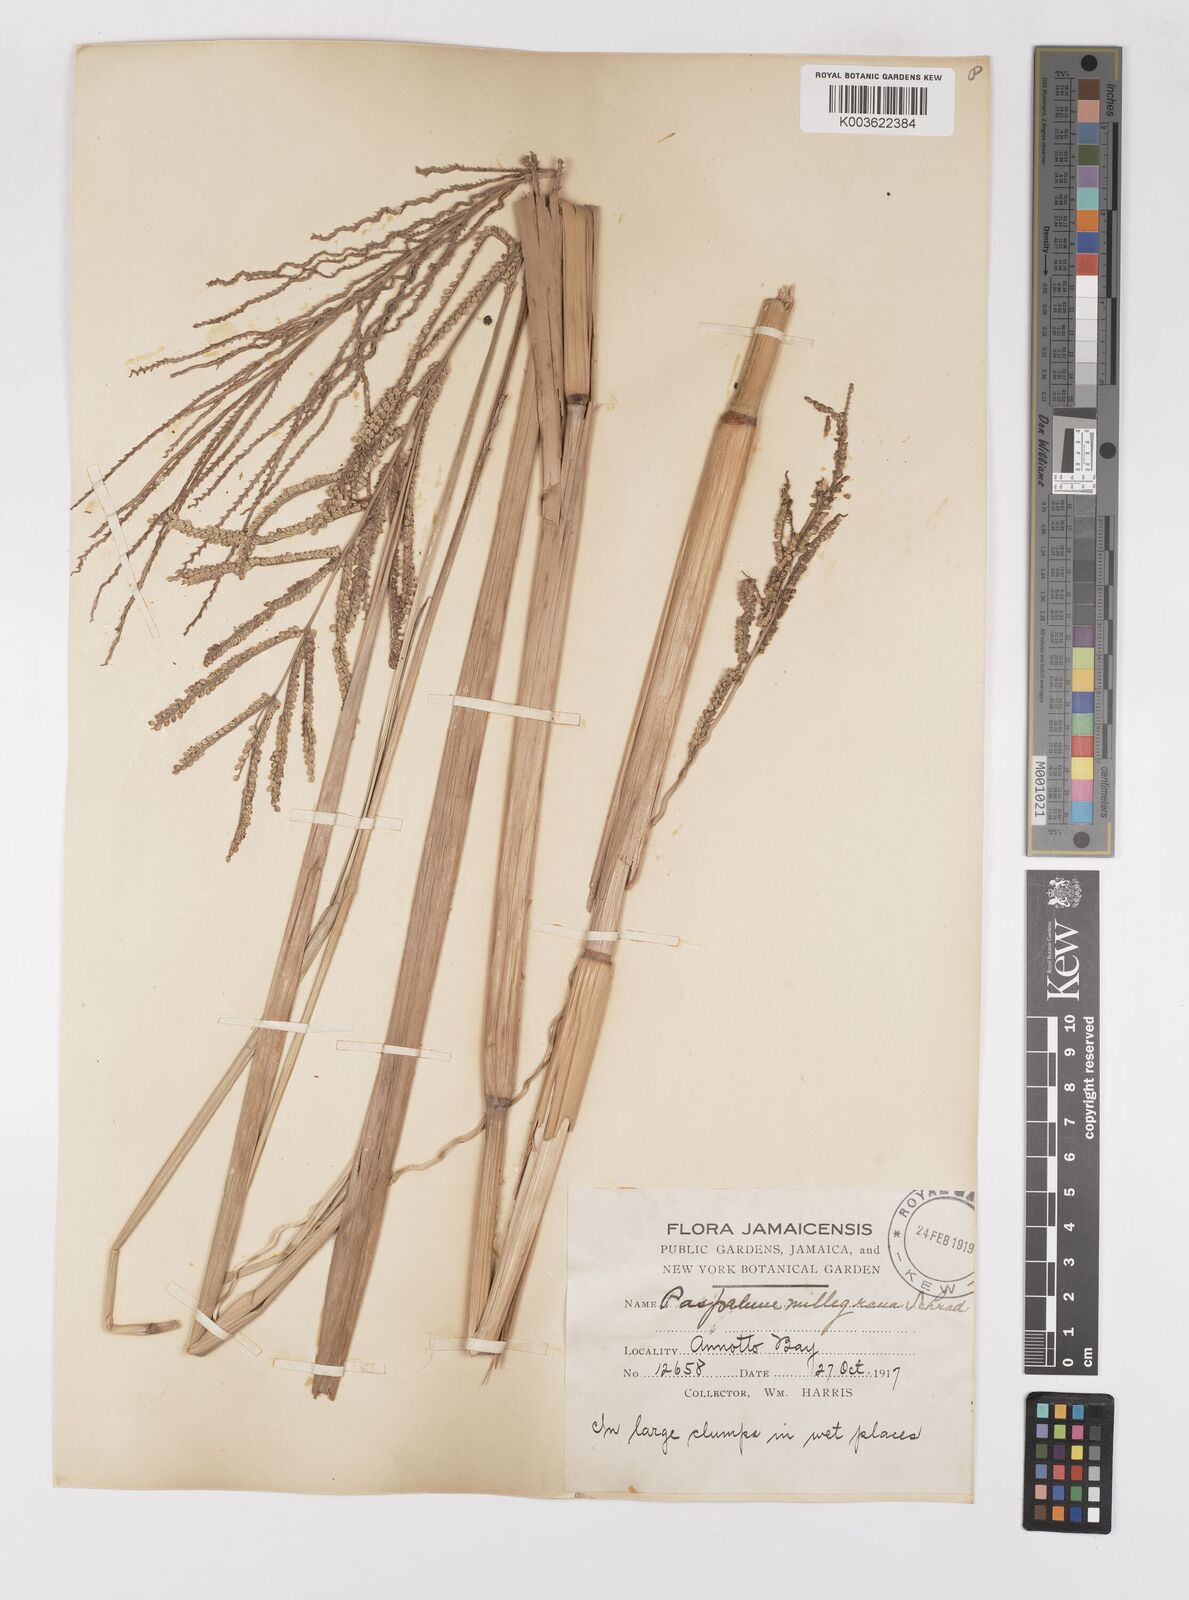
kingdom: Plantae
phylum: Tracheophyta
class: Liliopsida
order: Poales
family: Poaceae
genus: Paspalum
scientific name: Paspalum millegranum
